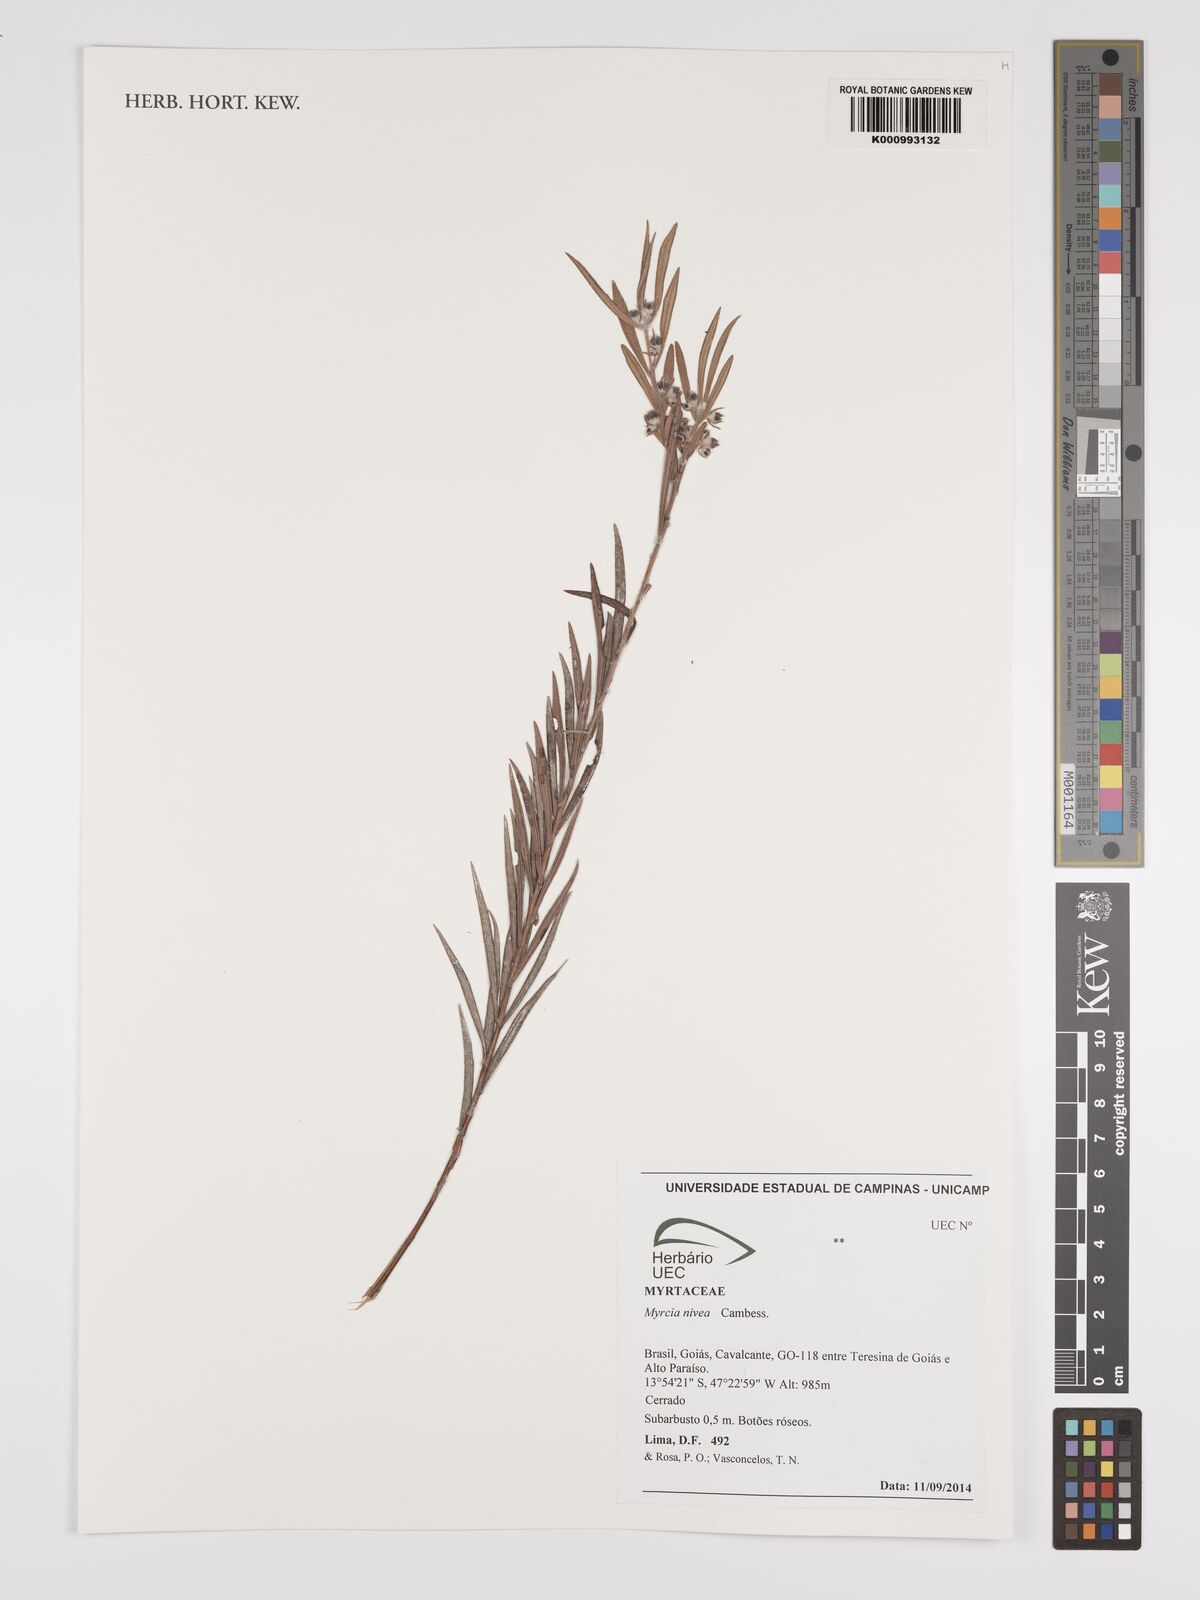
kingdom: Plantae
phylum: Tracheophyta
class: Magnoliopsida
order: Myrtales
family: Myrtaceae
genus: Myrcia
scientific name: Myrcia nivea
